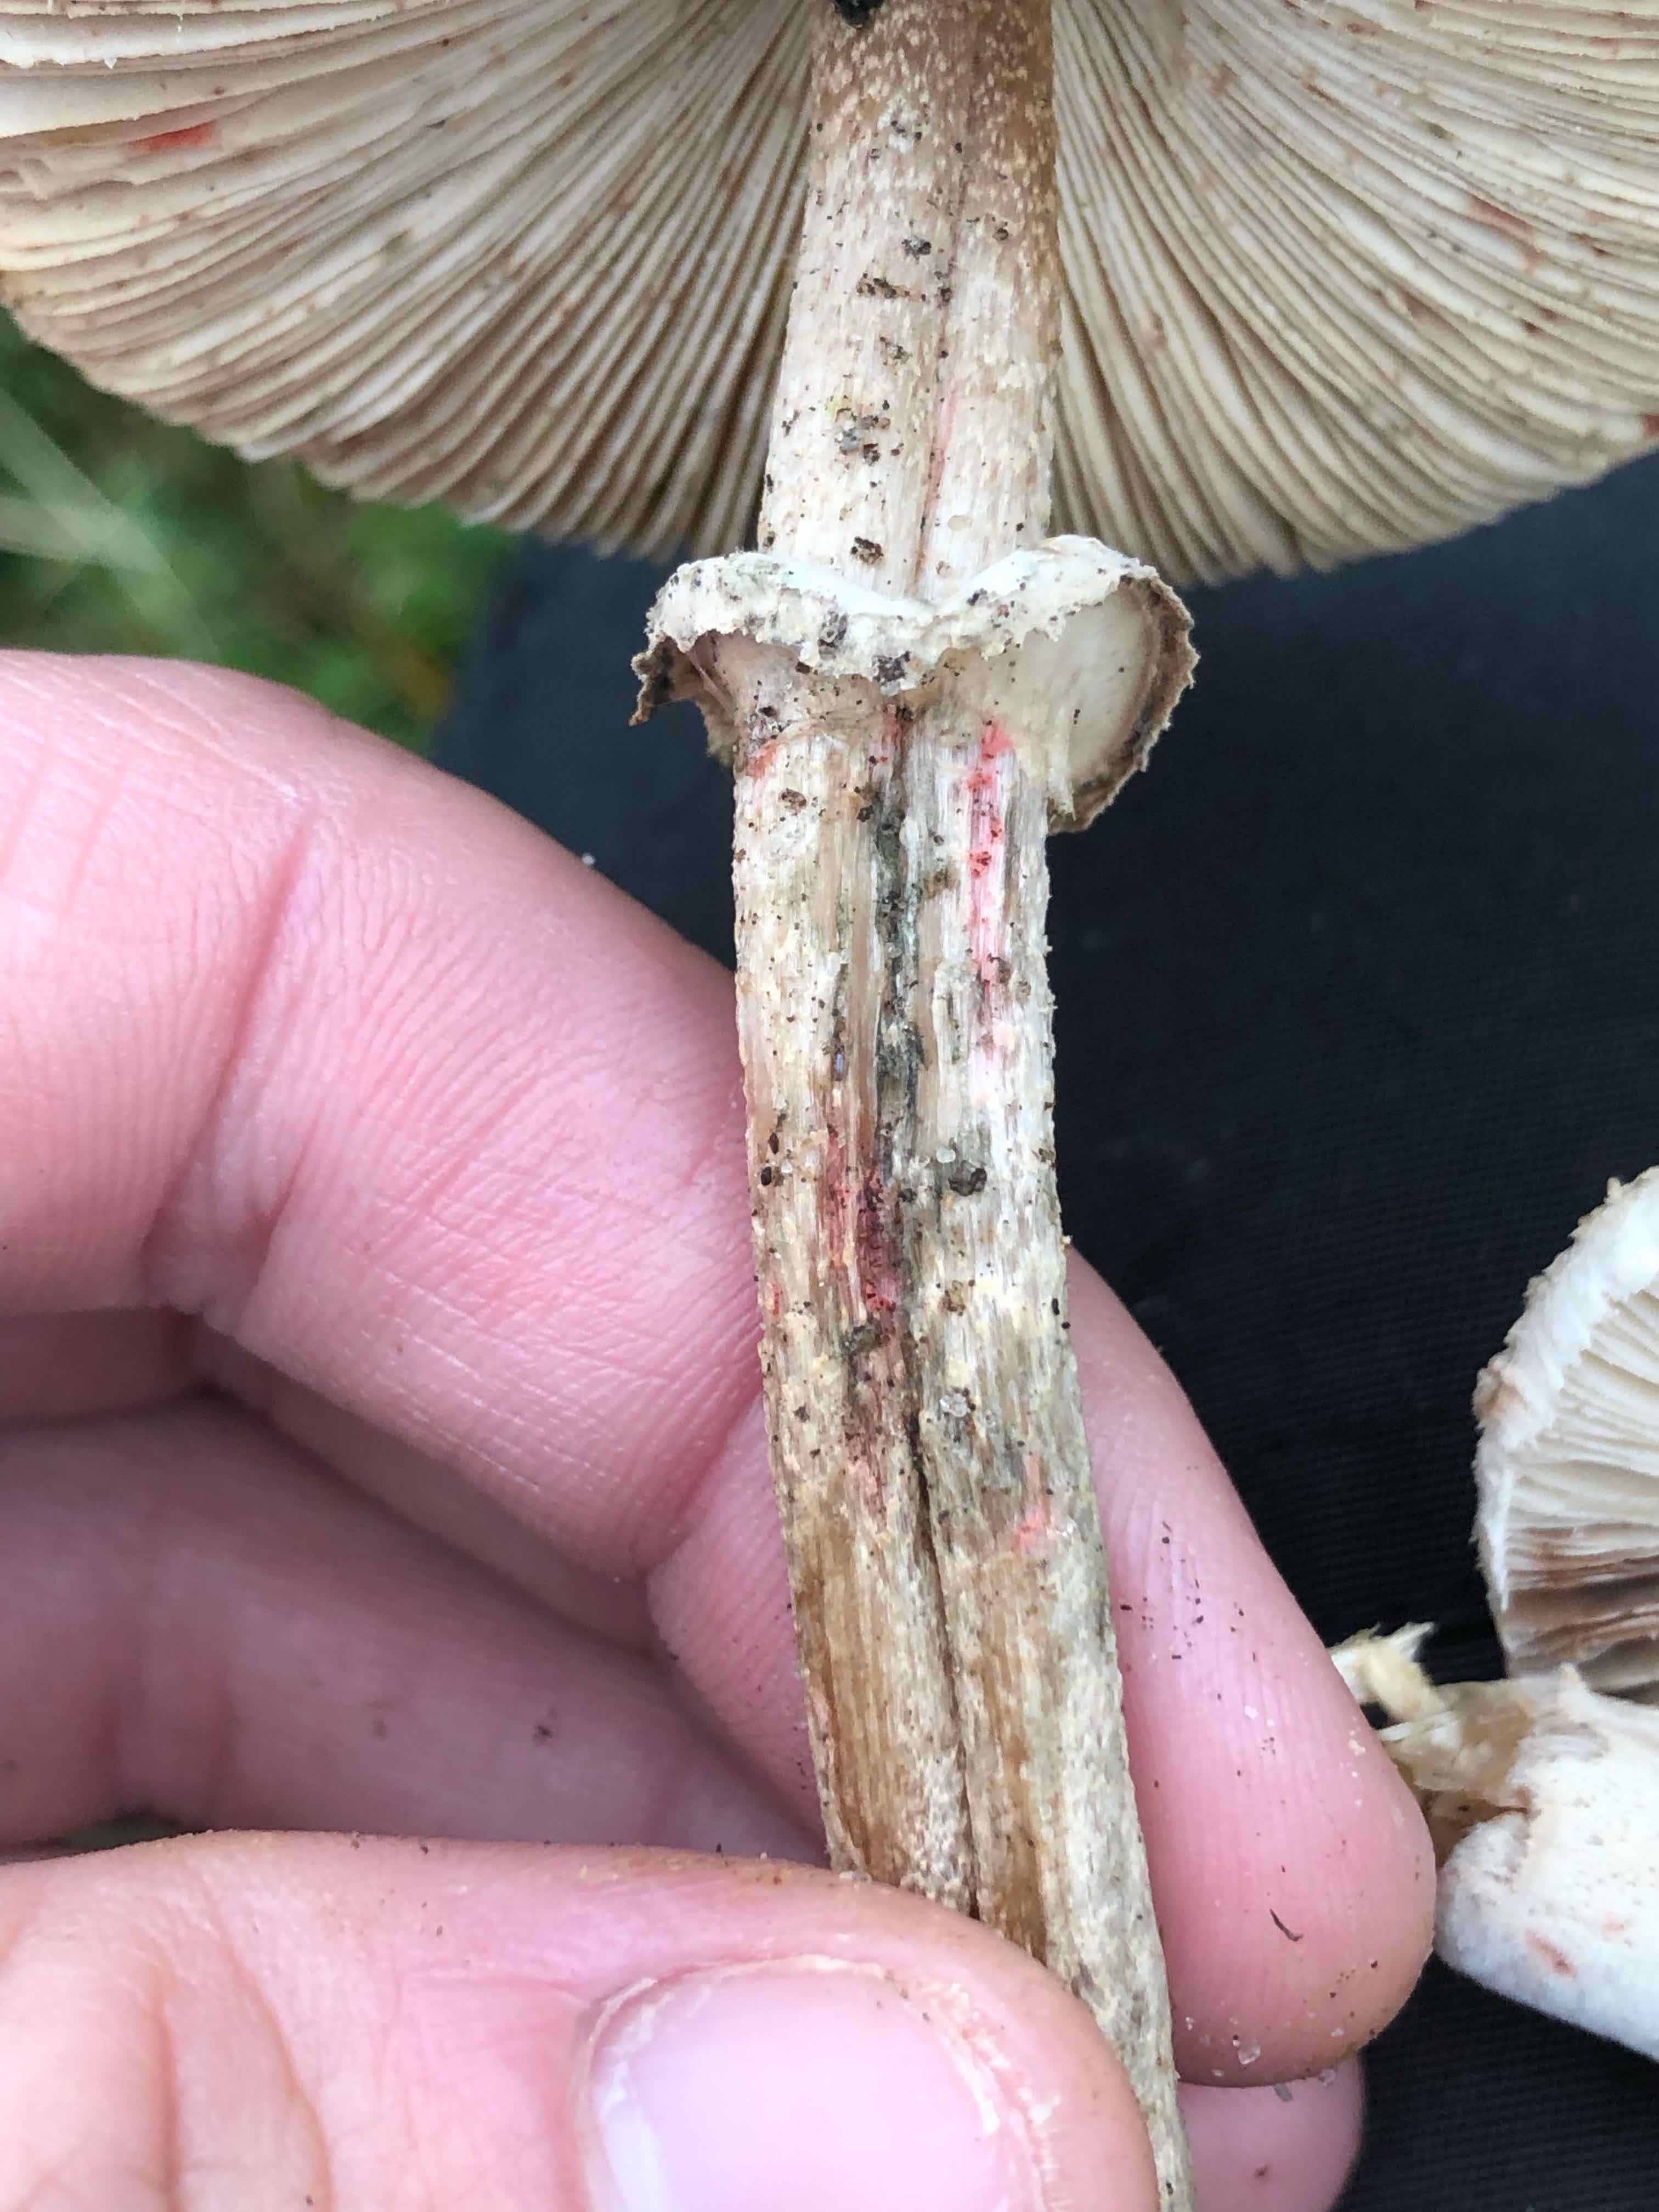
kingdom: Fungi
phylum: Basidiomycota
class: Agaricomycetes
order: Agaricales
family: Agaricaceae
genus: Macrolepiota
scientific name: Macrolepiota
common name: kæmpeparasolhat
